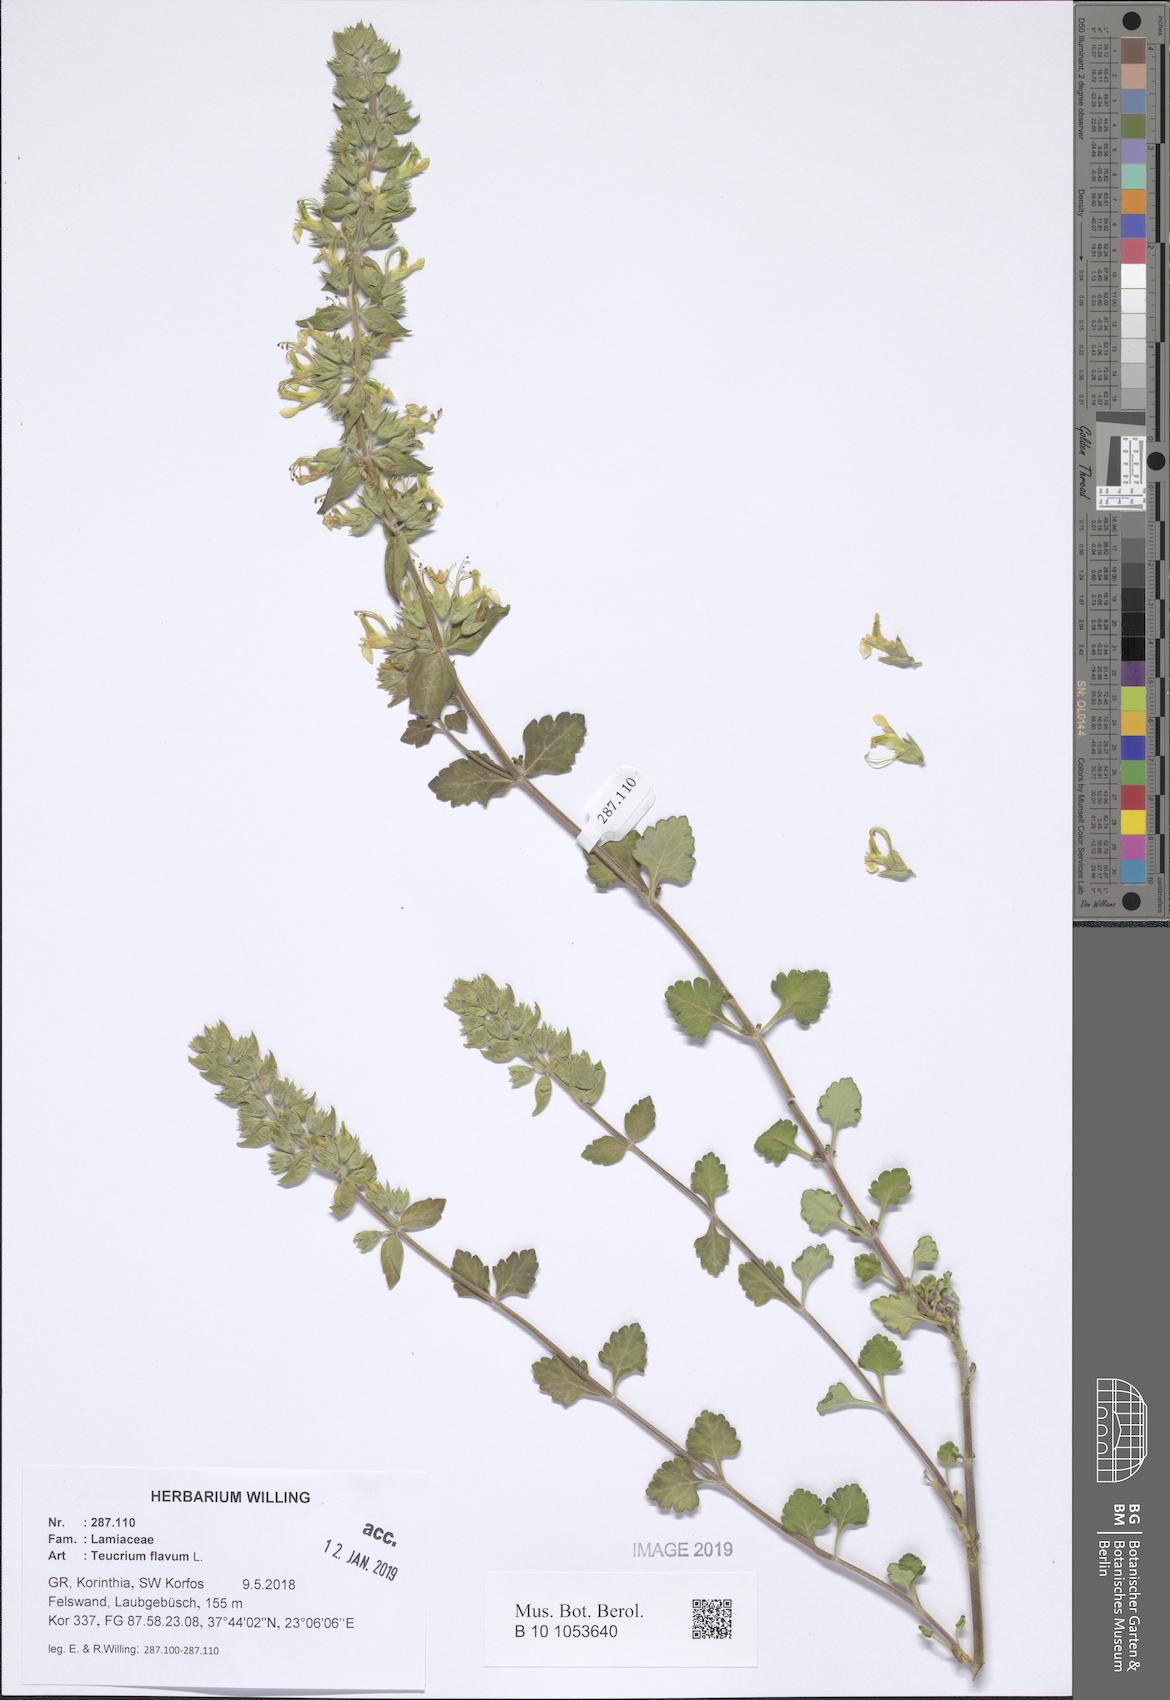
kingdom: Plantae
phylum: Tracheophyta
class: Magnoliopsida
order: Lamiales
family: Lamiaceae
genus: Teucrium
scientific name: Teucrium flavum
